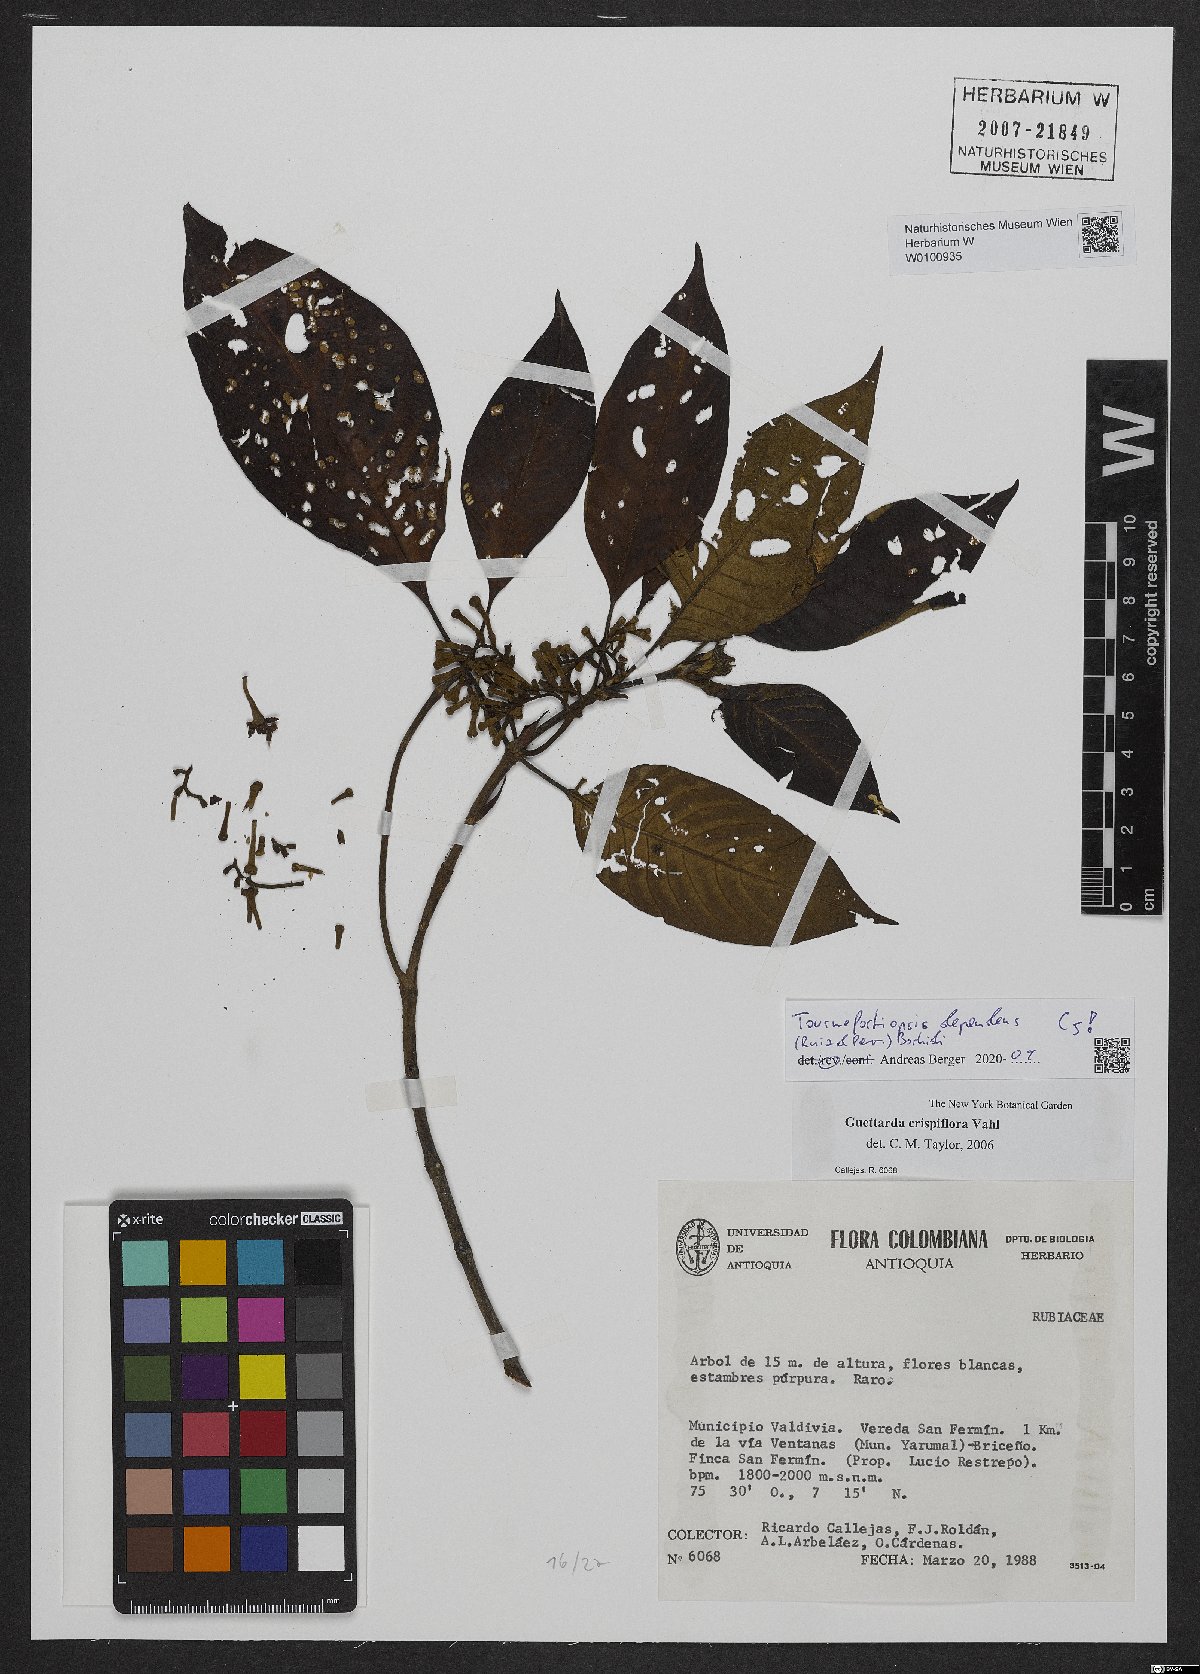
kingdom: Plantae
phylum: Tracheophyta
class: Magnoliopsida
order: Gentianales
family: Rubiaceae
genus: Tournefortiopsis
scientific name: Tournefortiopsis dependens
